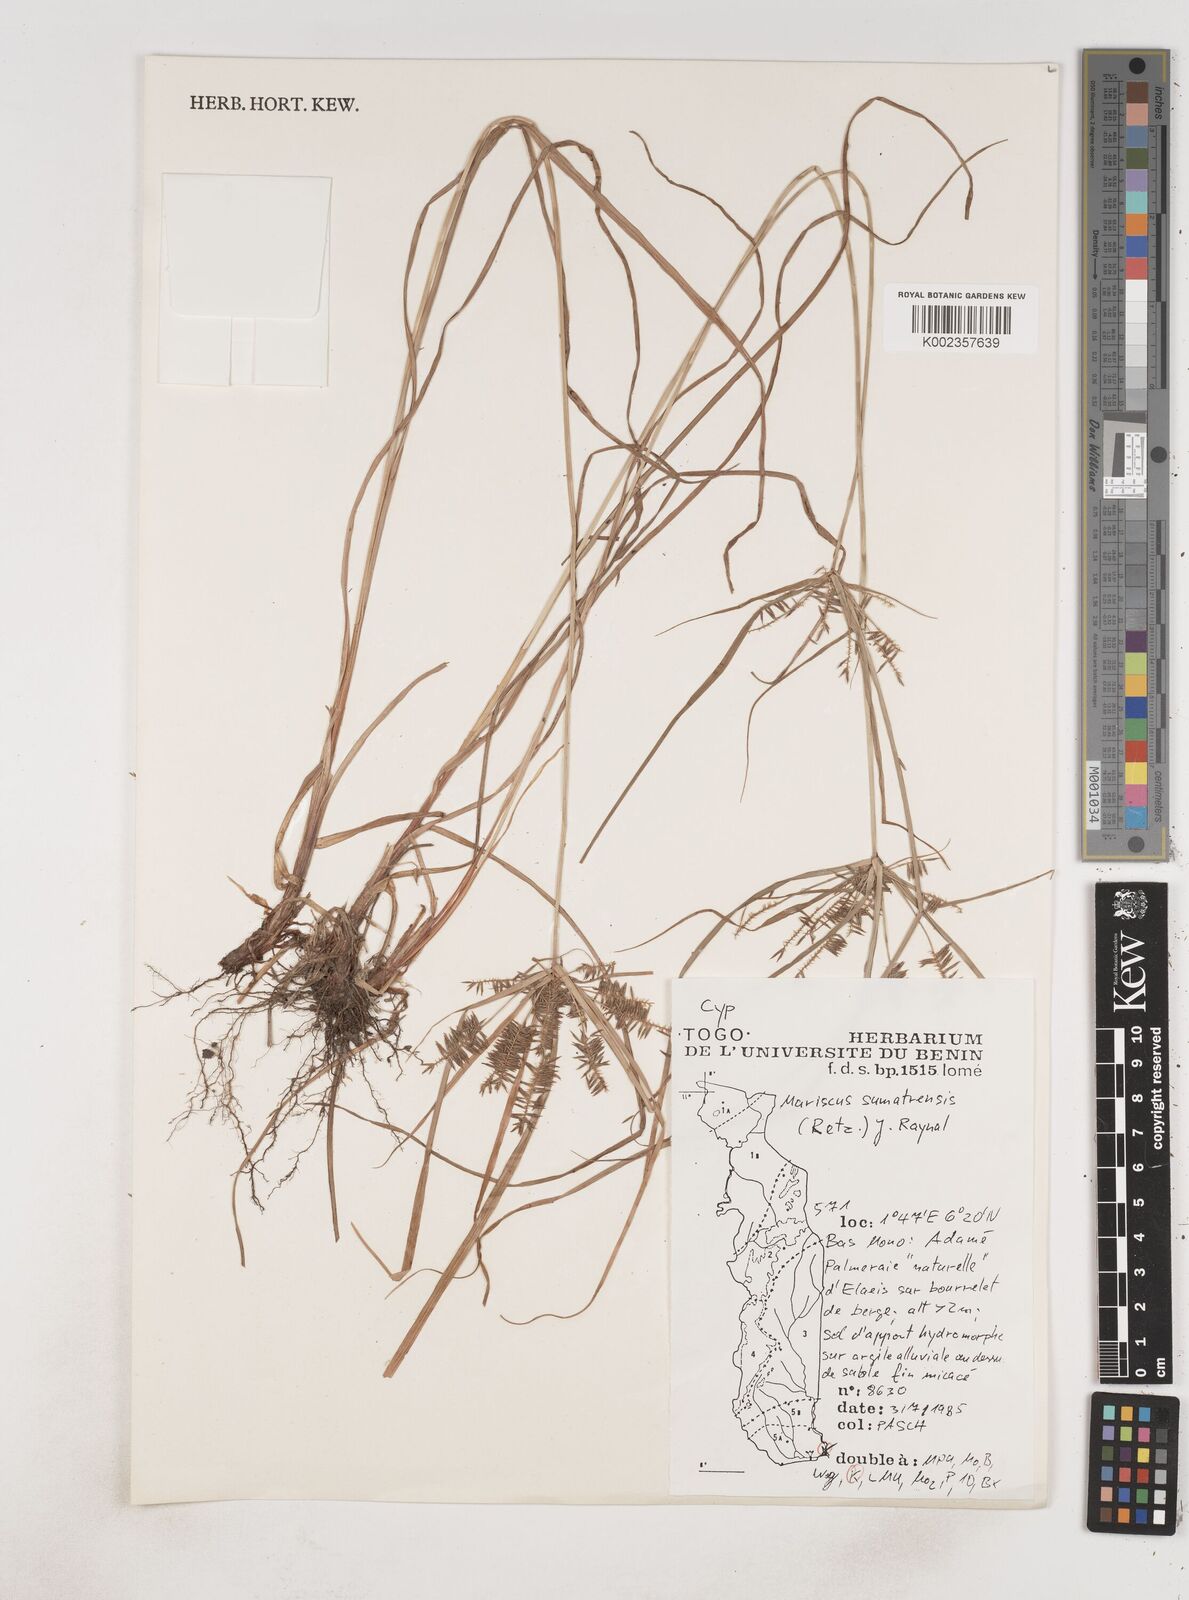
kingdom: Plantae
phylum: Tracheophyta
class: Liliopsida
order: Poales
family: Cyperaceae
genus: Cyperus
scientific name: Cyperus cyperoides
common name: Pacific island flat sedge
